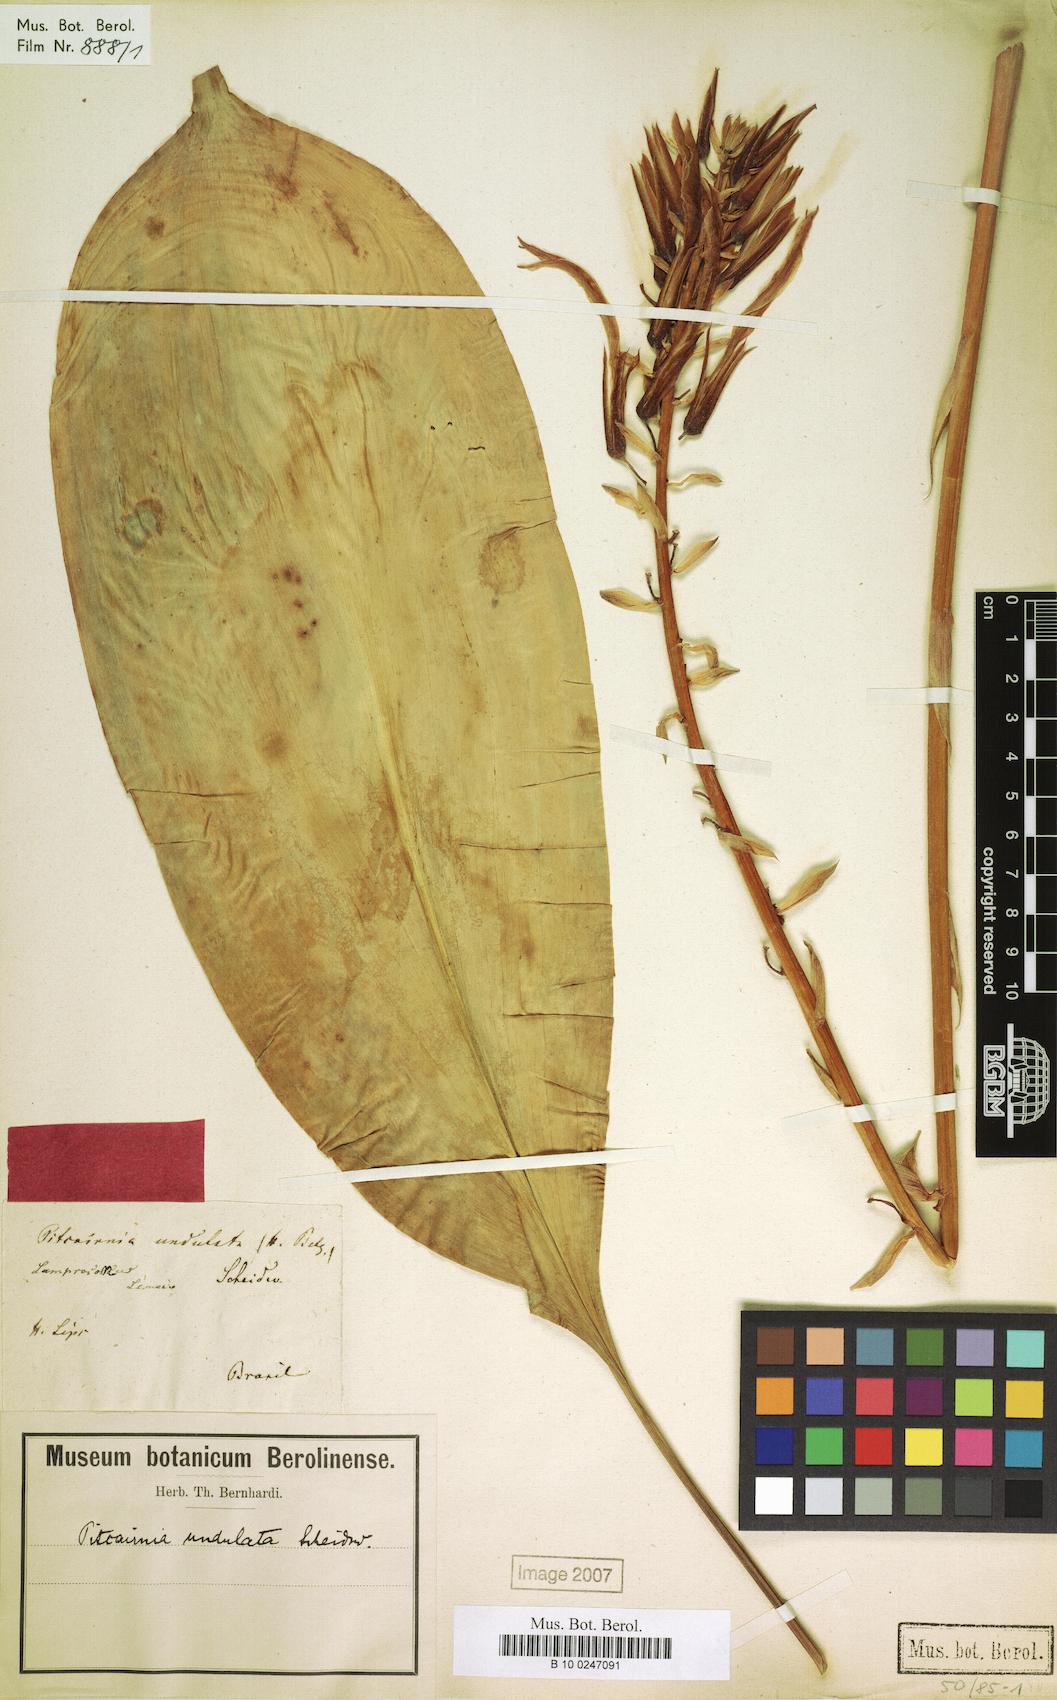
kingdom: Plantae
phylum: Tracheophyta
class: Liliopsida
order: Poales
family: Bromeliaceae
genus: Pitcairnia
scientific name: Pitcairnia undulata
